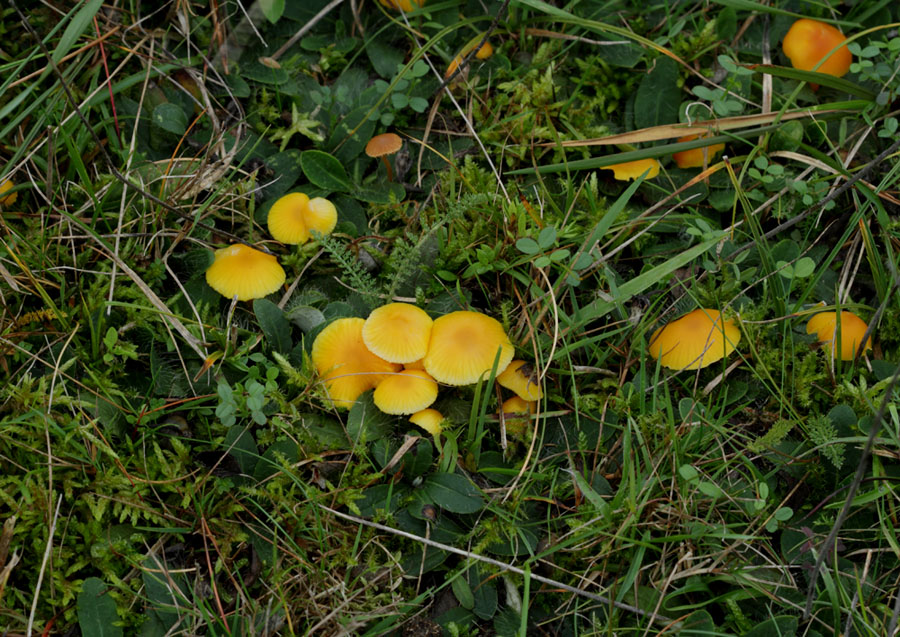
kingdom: Fungi
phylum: Basidiomycota
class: Agaricomycetes
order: Agaricales
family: Hygrophoraceae
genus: Hygrocybe
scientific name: Hygrocybe ceracea
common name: voksgul vokshat
